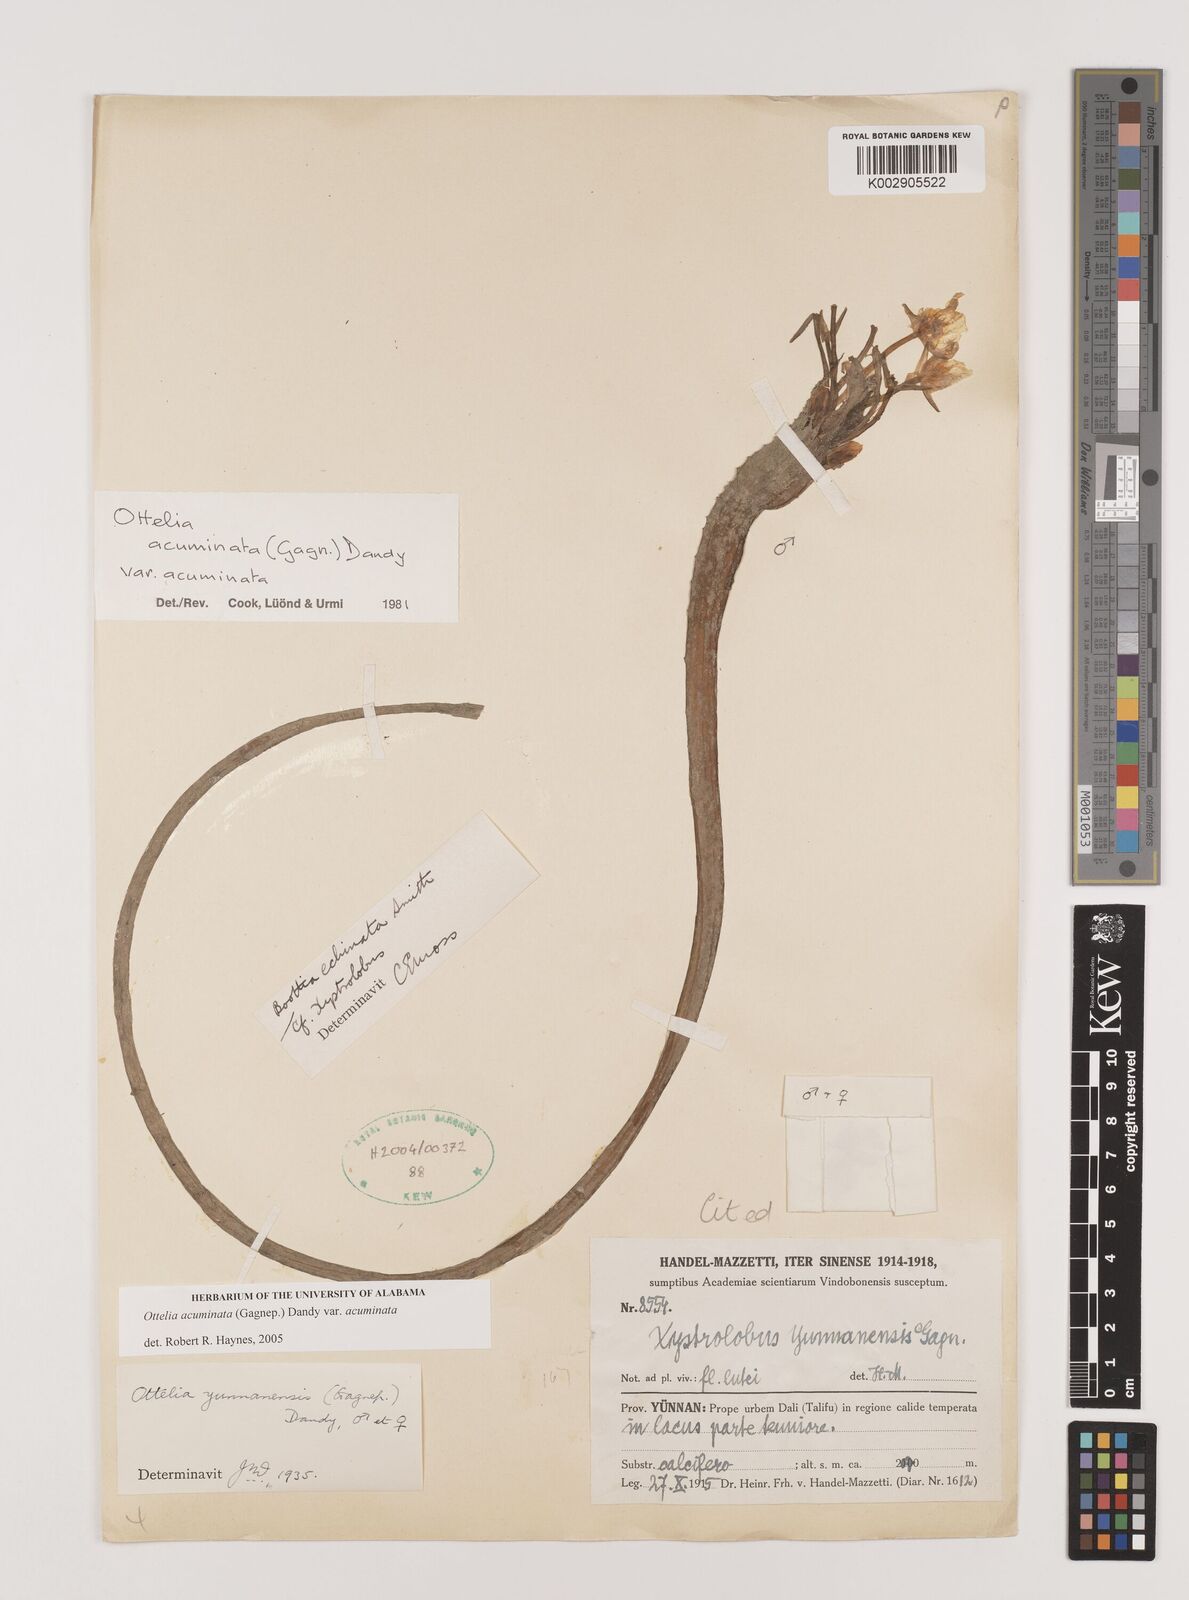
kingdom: Plantae
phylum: Tracheophyta
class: Liliopsida
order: Alismatales
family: Hydrocharitaceae
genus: Ottelia
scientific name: Ottelia acuminata
